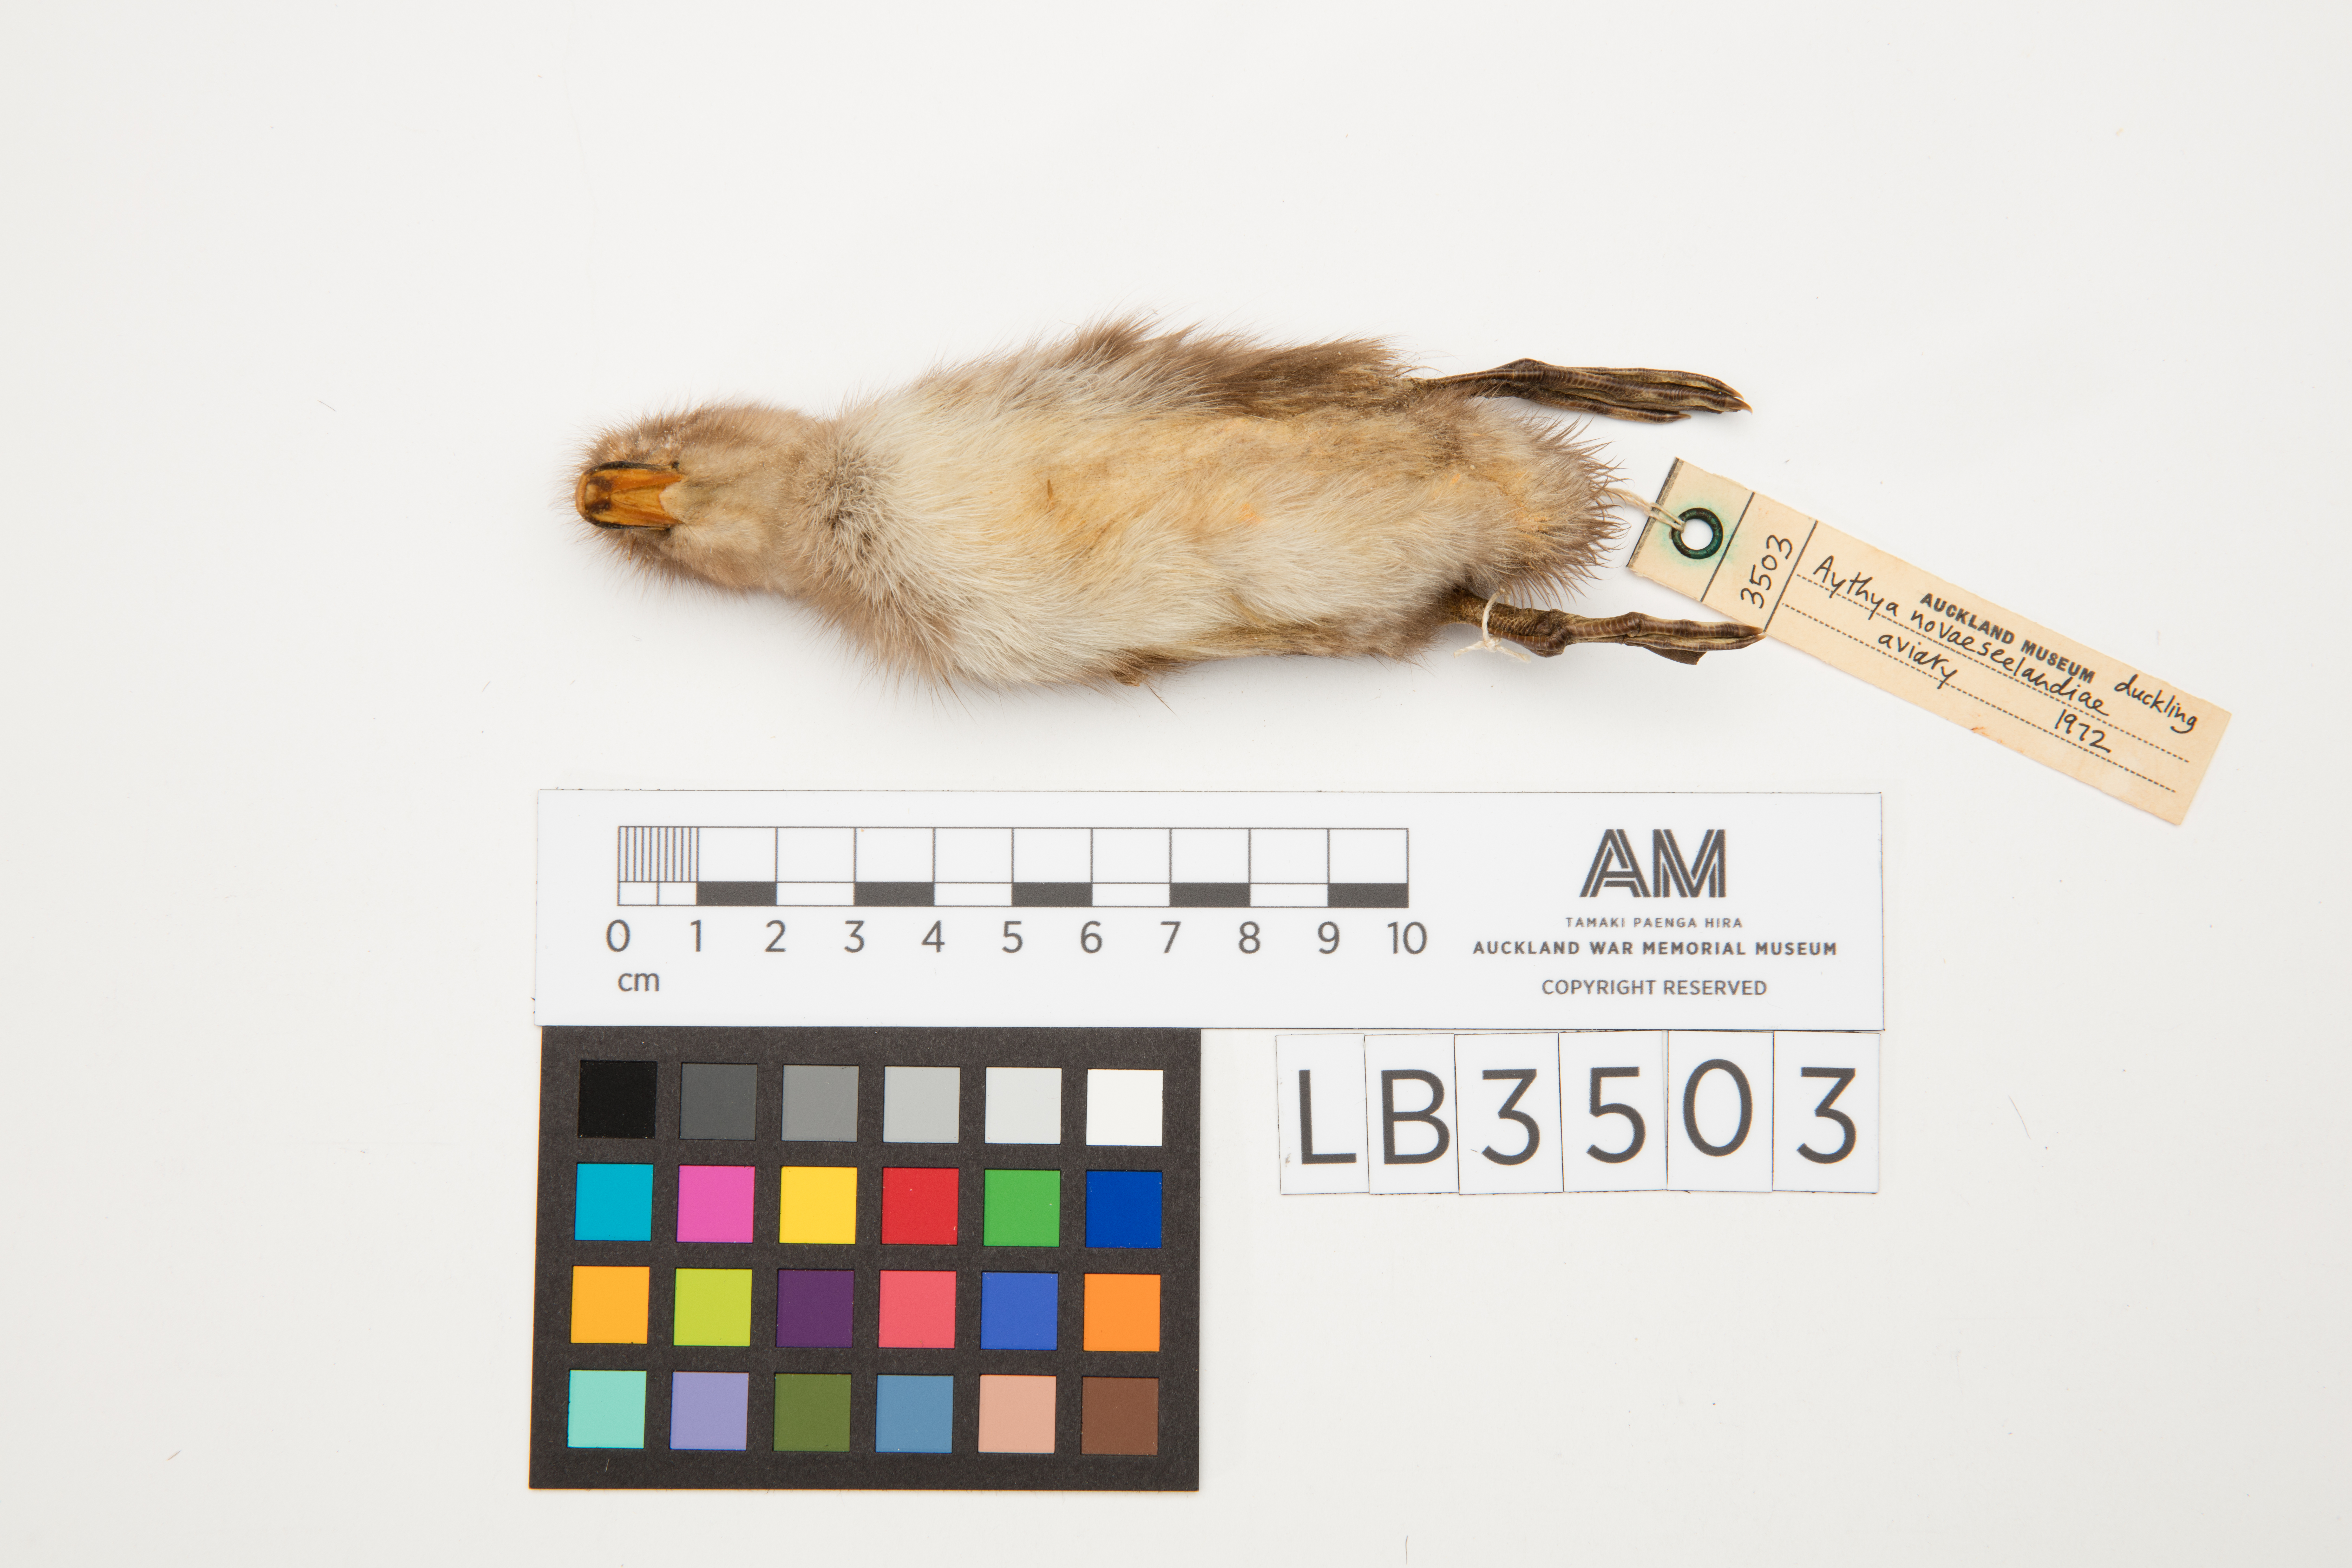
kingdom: Animalia
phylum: Chordata
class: Aves
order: Anseriformes
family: Anatidae
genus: Aythya
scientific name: Aythya novaeseelandiae
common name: New zealand scaup
